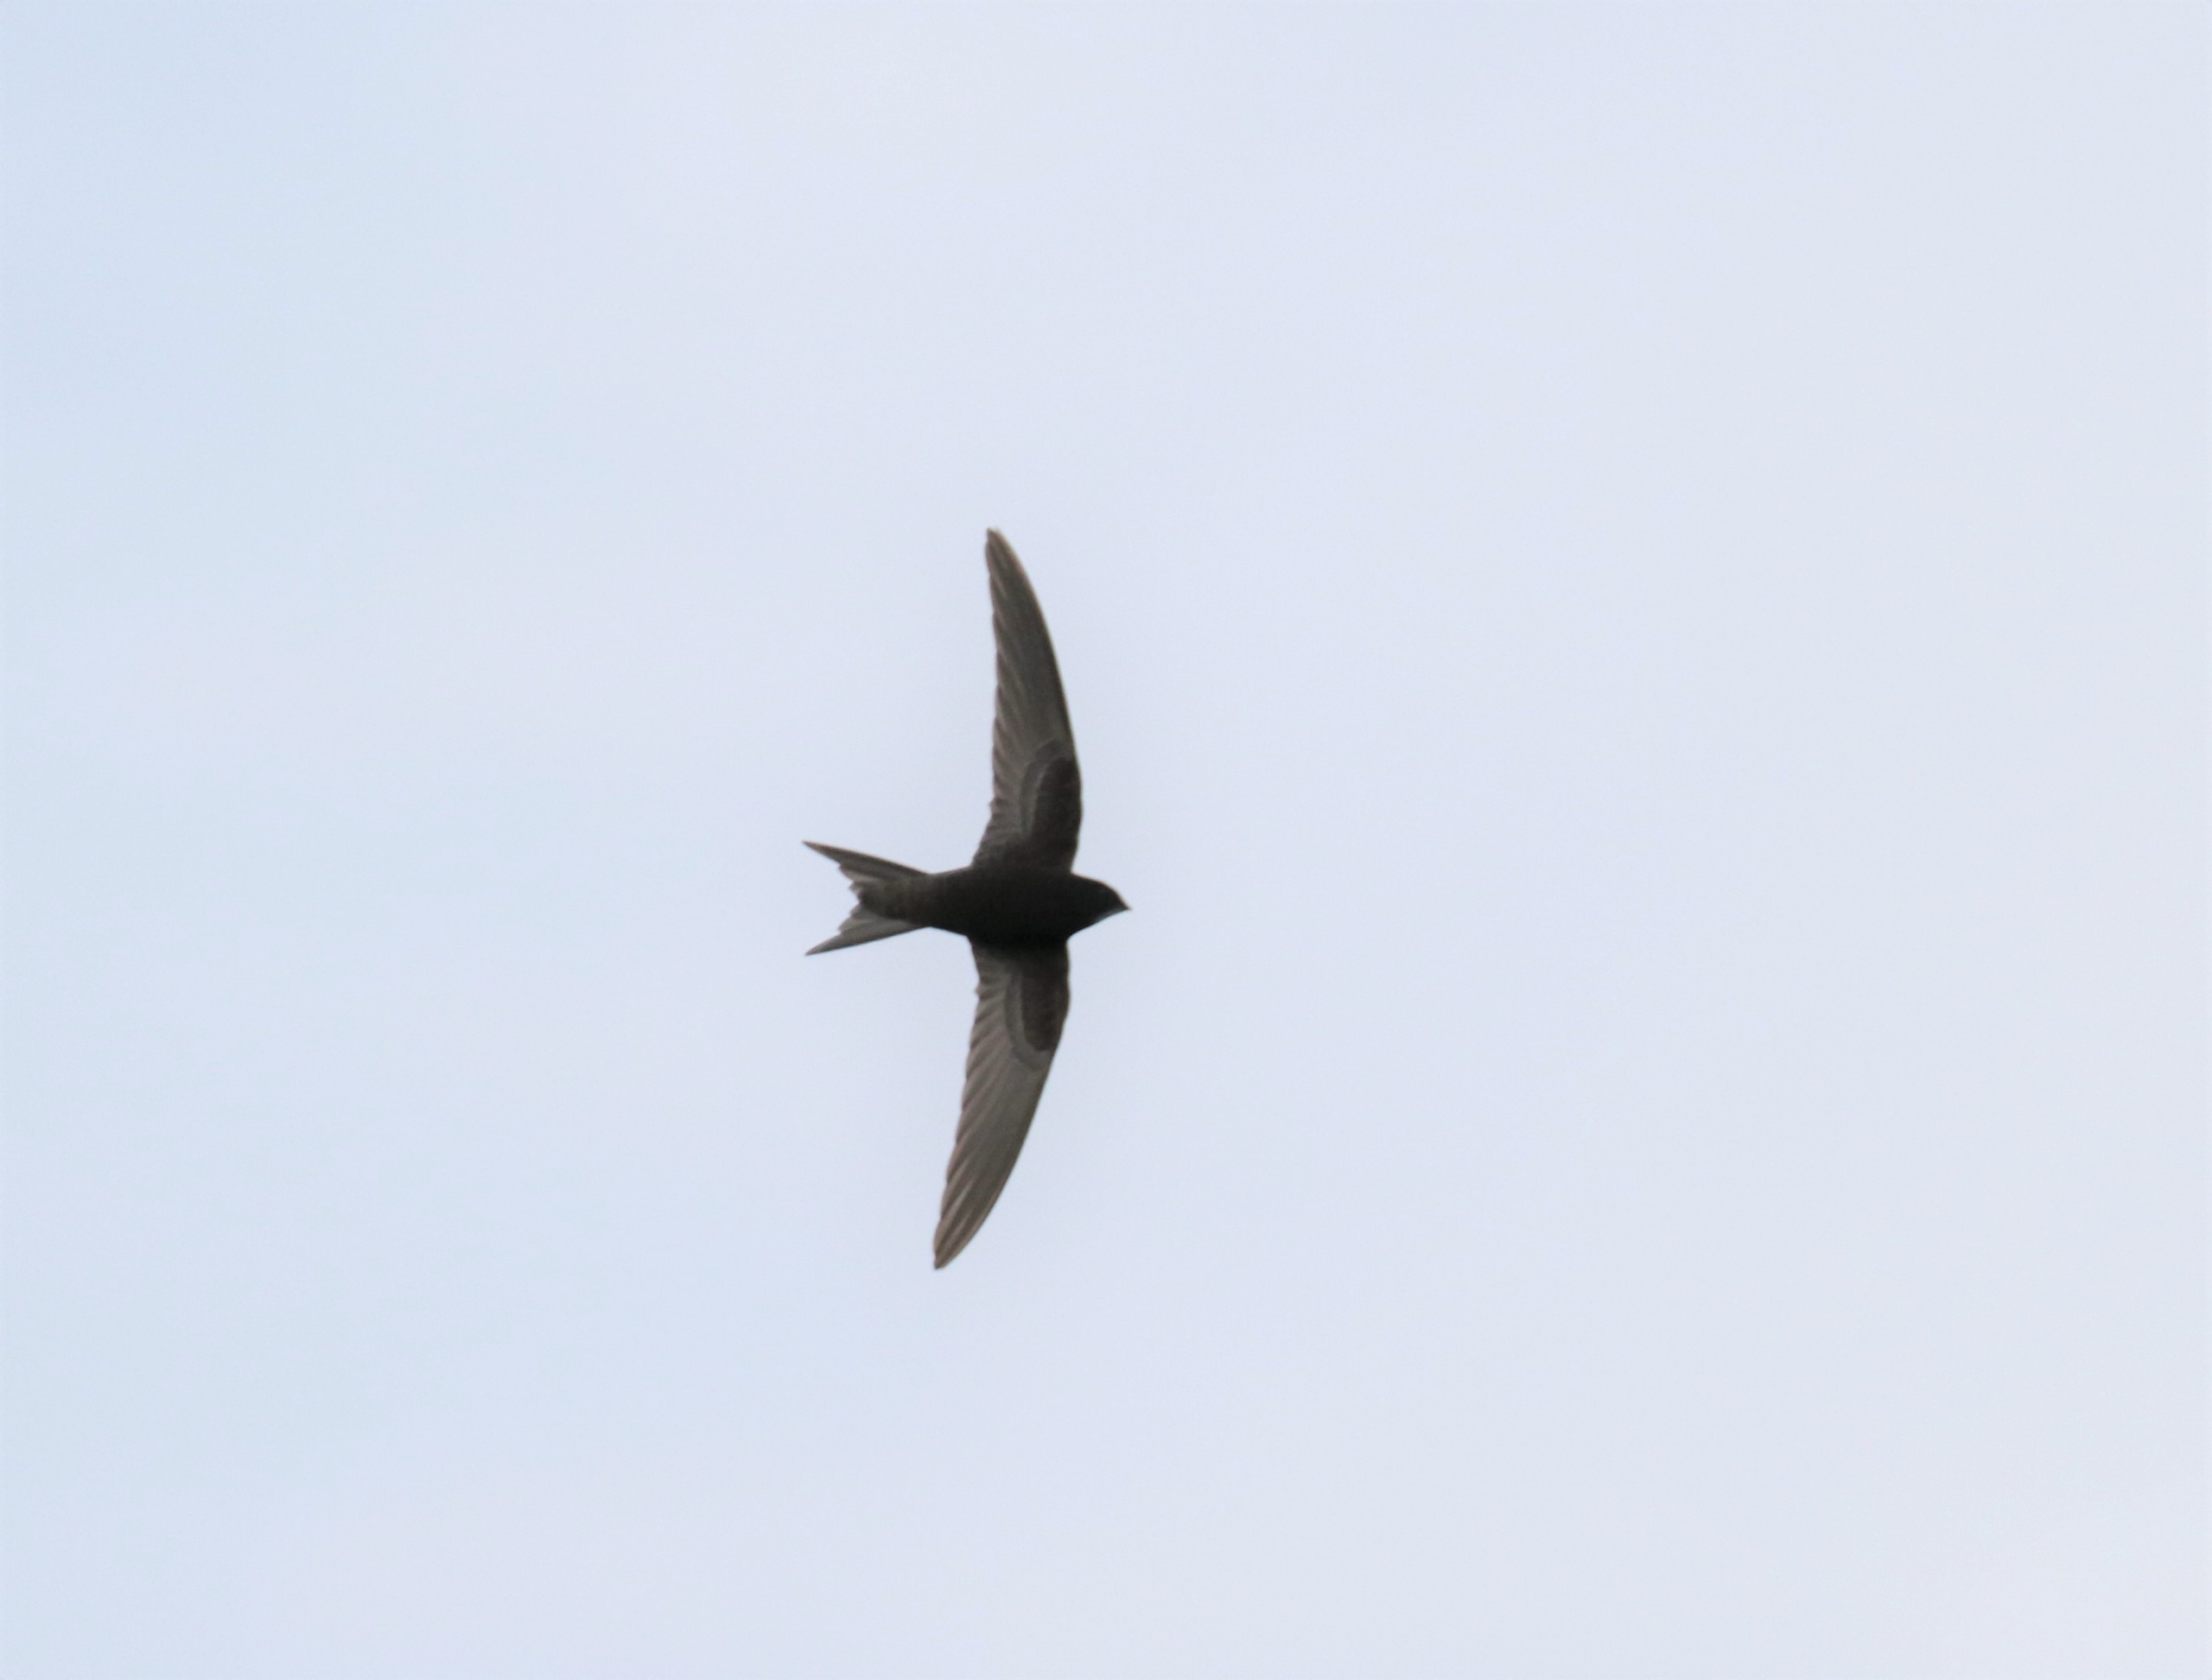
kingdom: Animalia
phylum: Chordata
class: Aves
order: Apodiformes
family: Apodidae
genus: Apus
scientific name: Apus apus
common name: Mursejler
